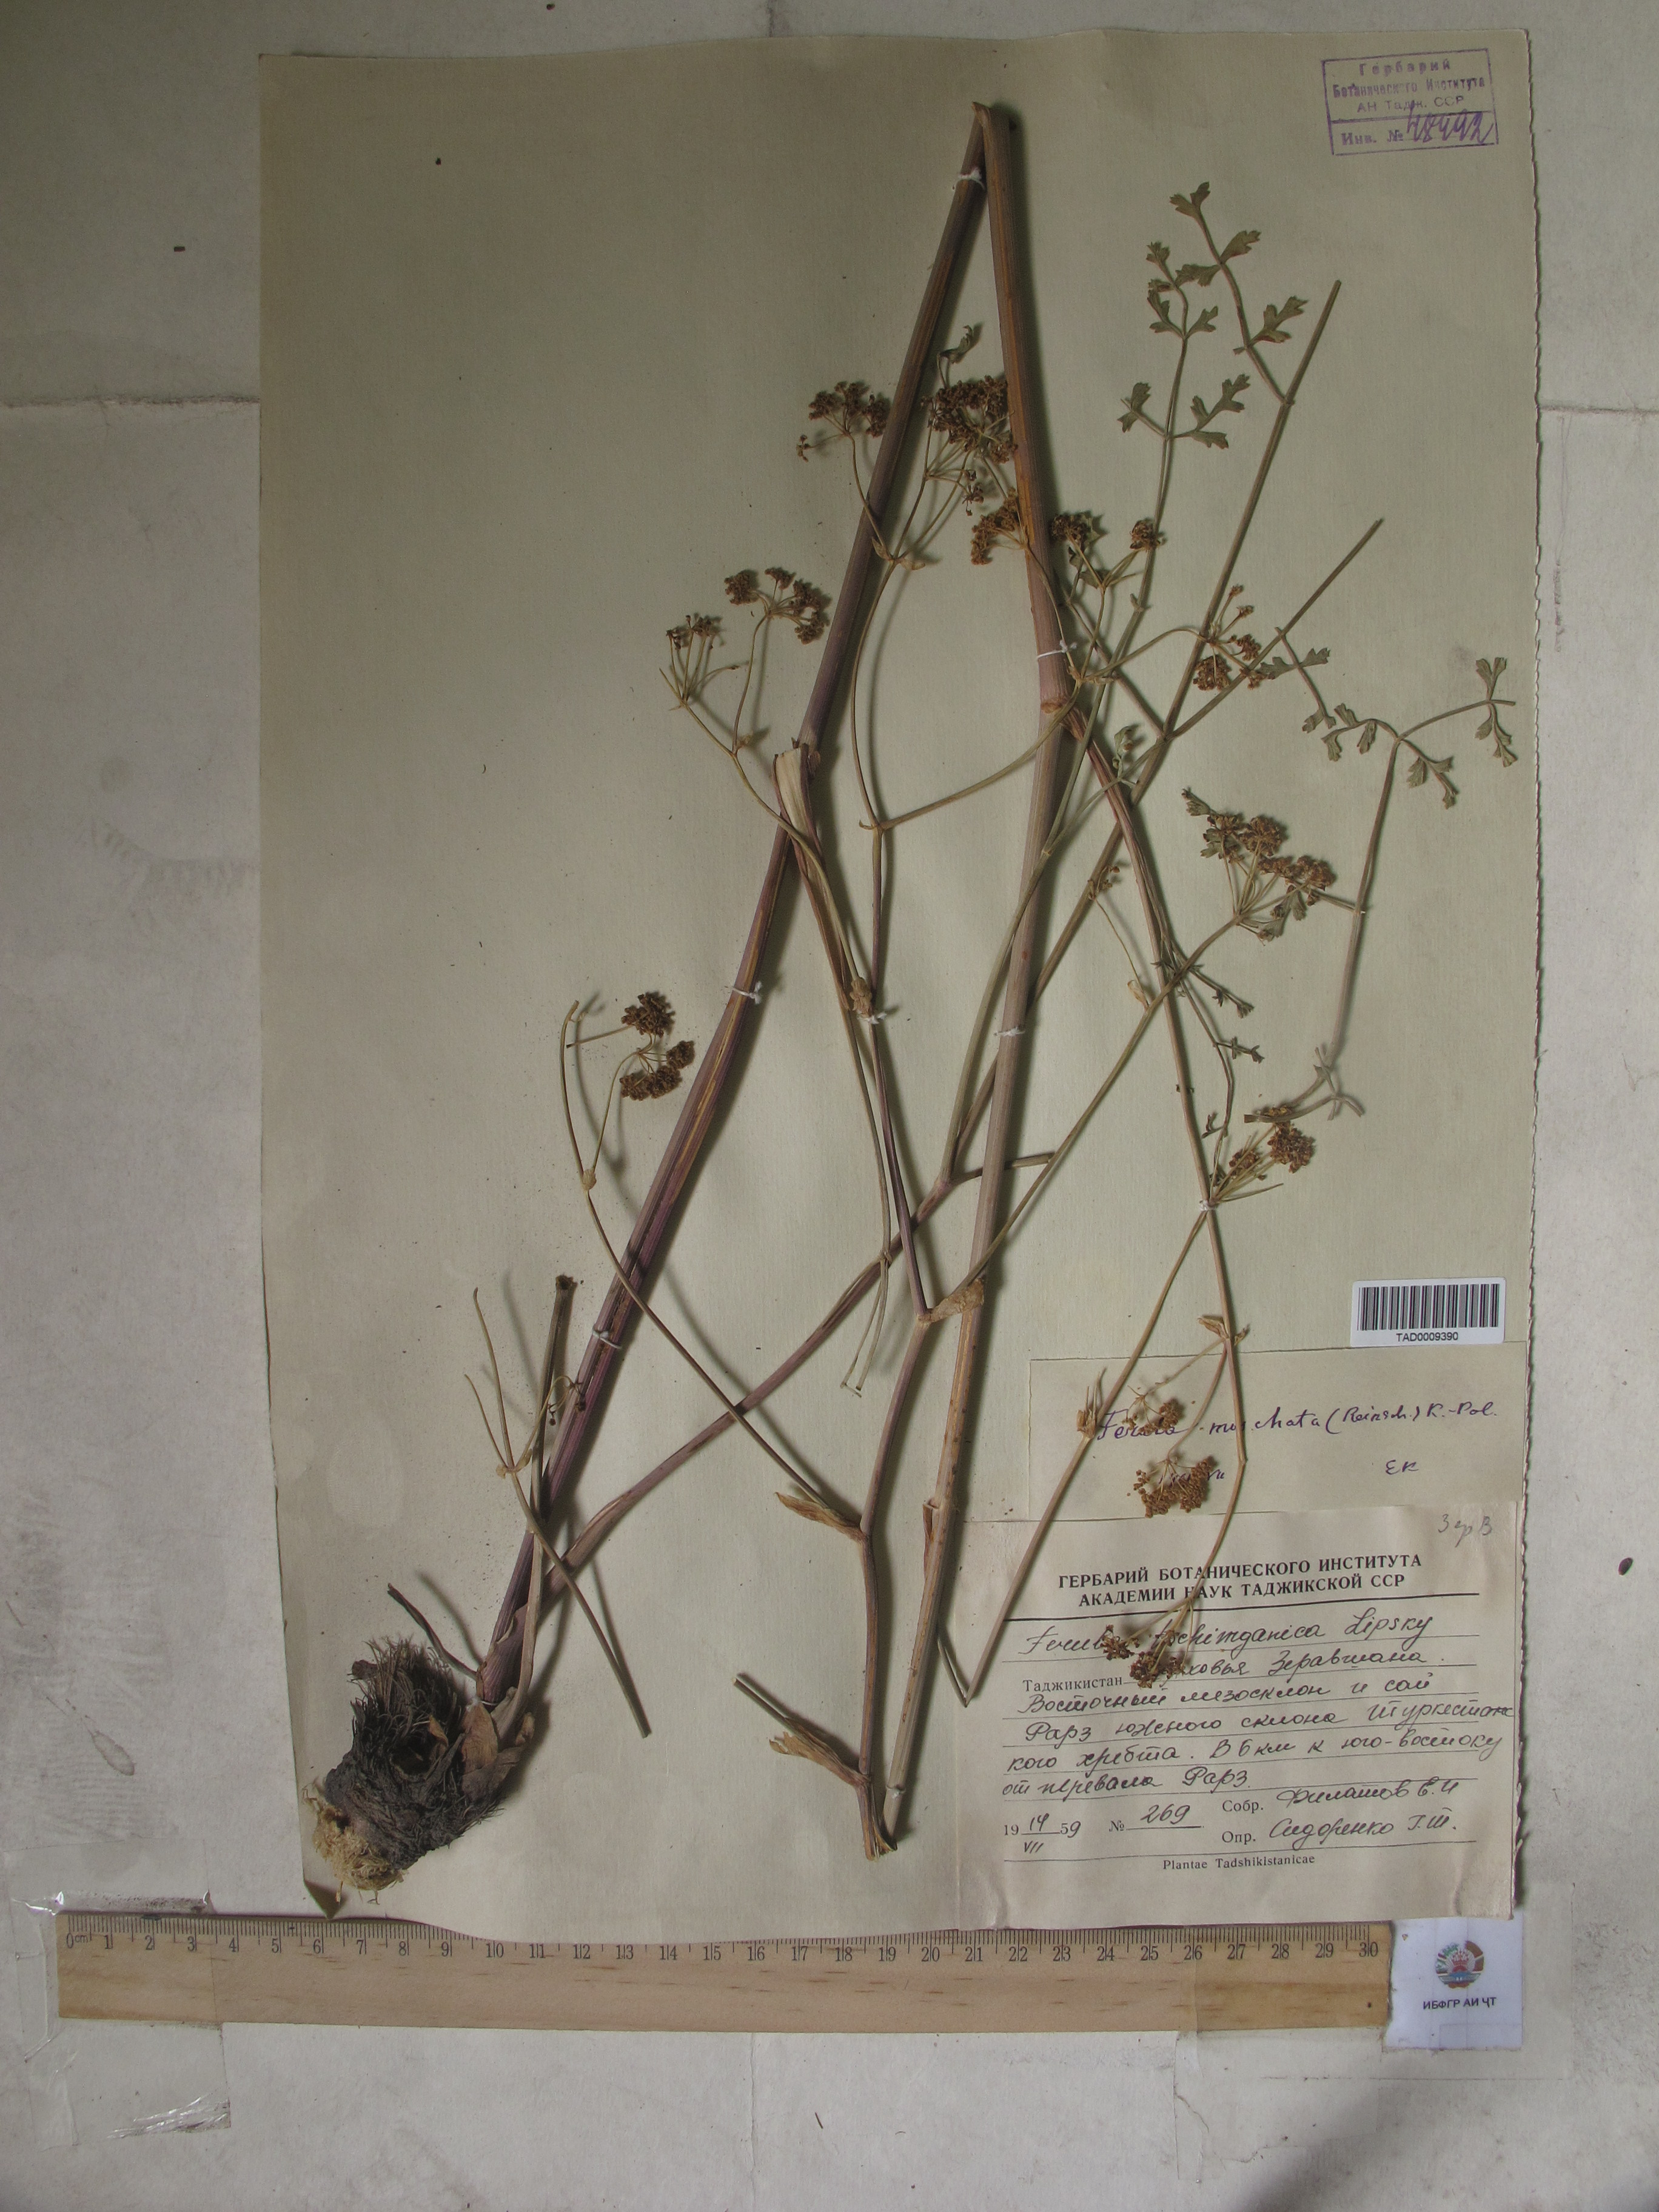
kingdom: Plantae
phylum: Tracheophyta
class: Magnoliopsida
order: Apiales
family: Apiaceae
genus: Ferula
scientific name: Ferula moschata
